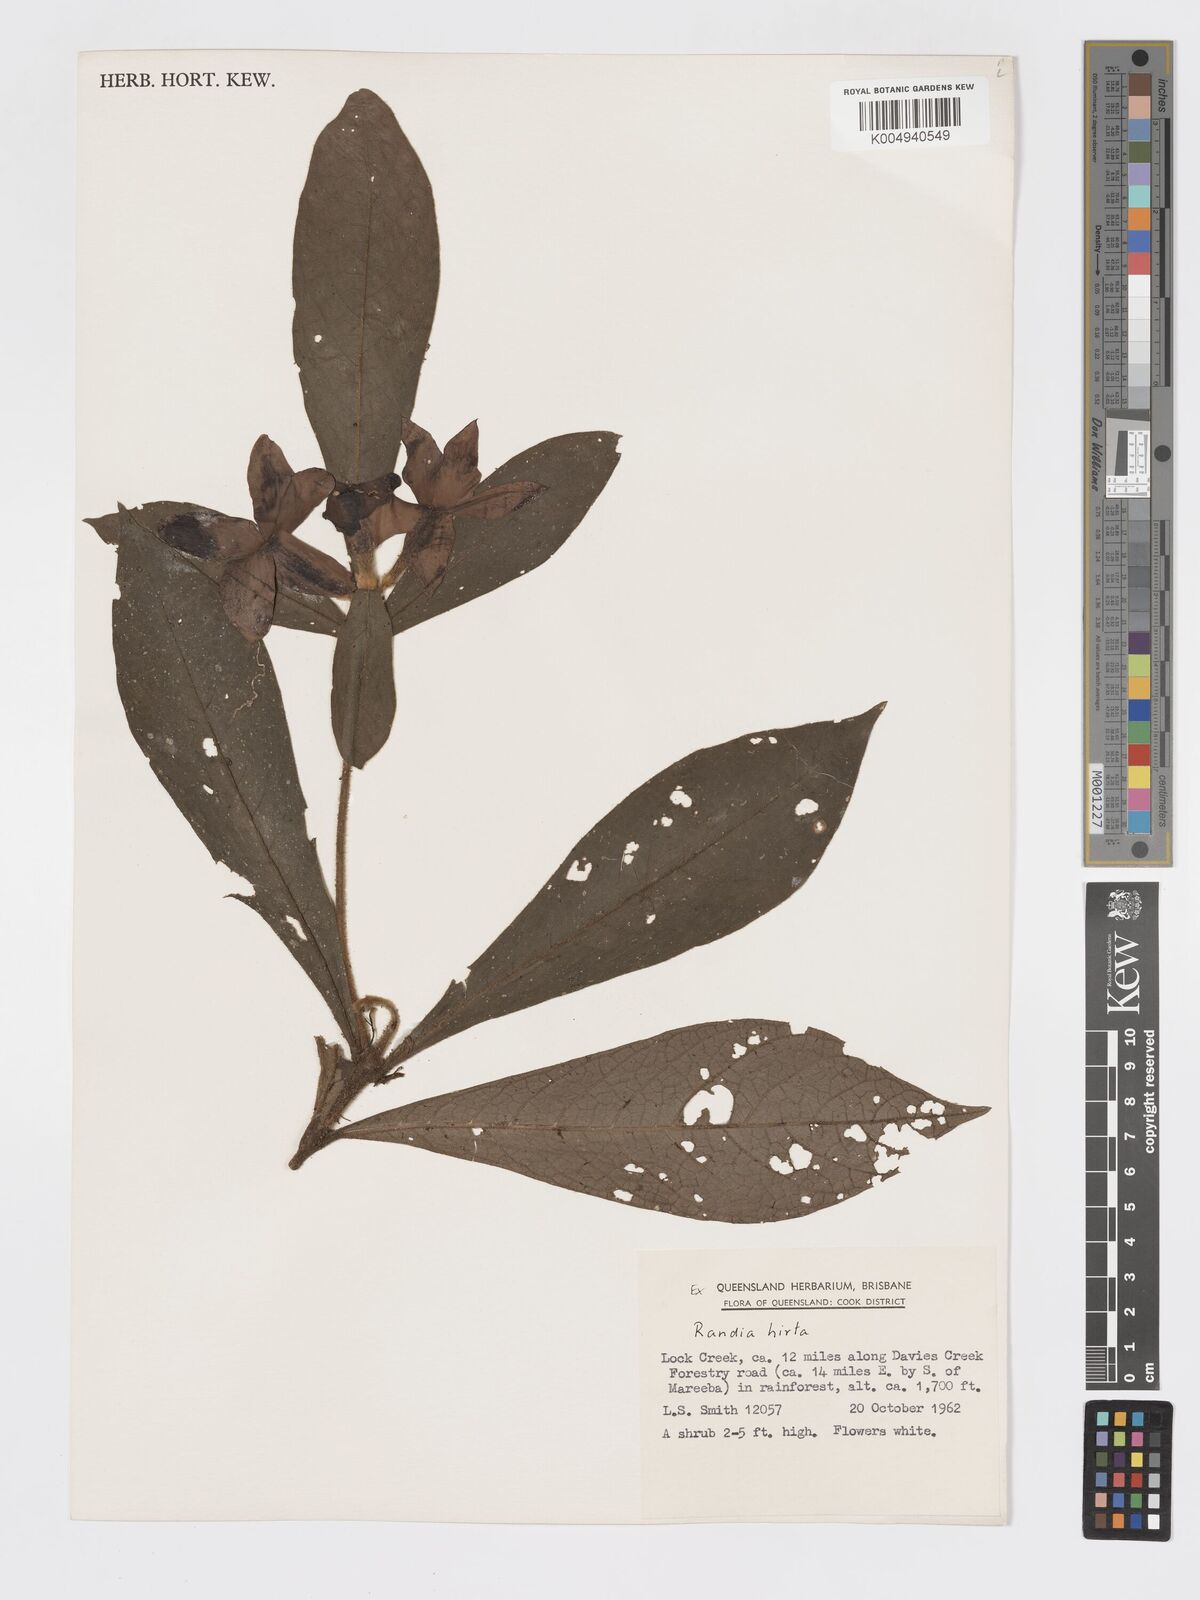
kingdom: Plantae
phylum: Tracheophyta
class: Magnoliopsida
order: Gentianales
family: Rubiaceae
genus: Atractocarpus
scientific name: Atractocarpus hirtus
